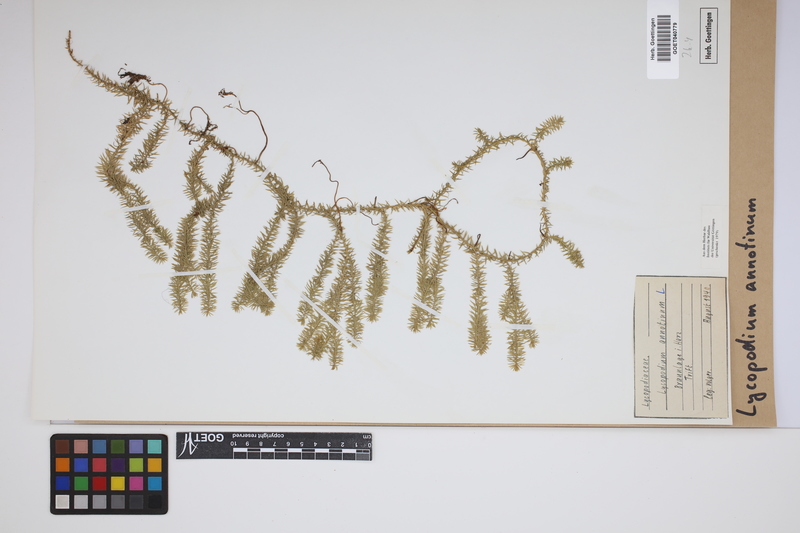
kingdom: Plantae
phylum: Tracheophyta
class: Lycopodiopsida
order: Lycopodiales
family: Lycopodiaceae
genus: Spinulum
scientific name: Spinulum annotinum
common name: Interrupted club-moss
